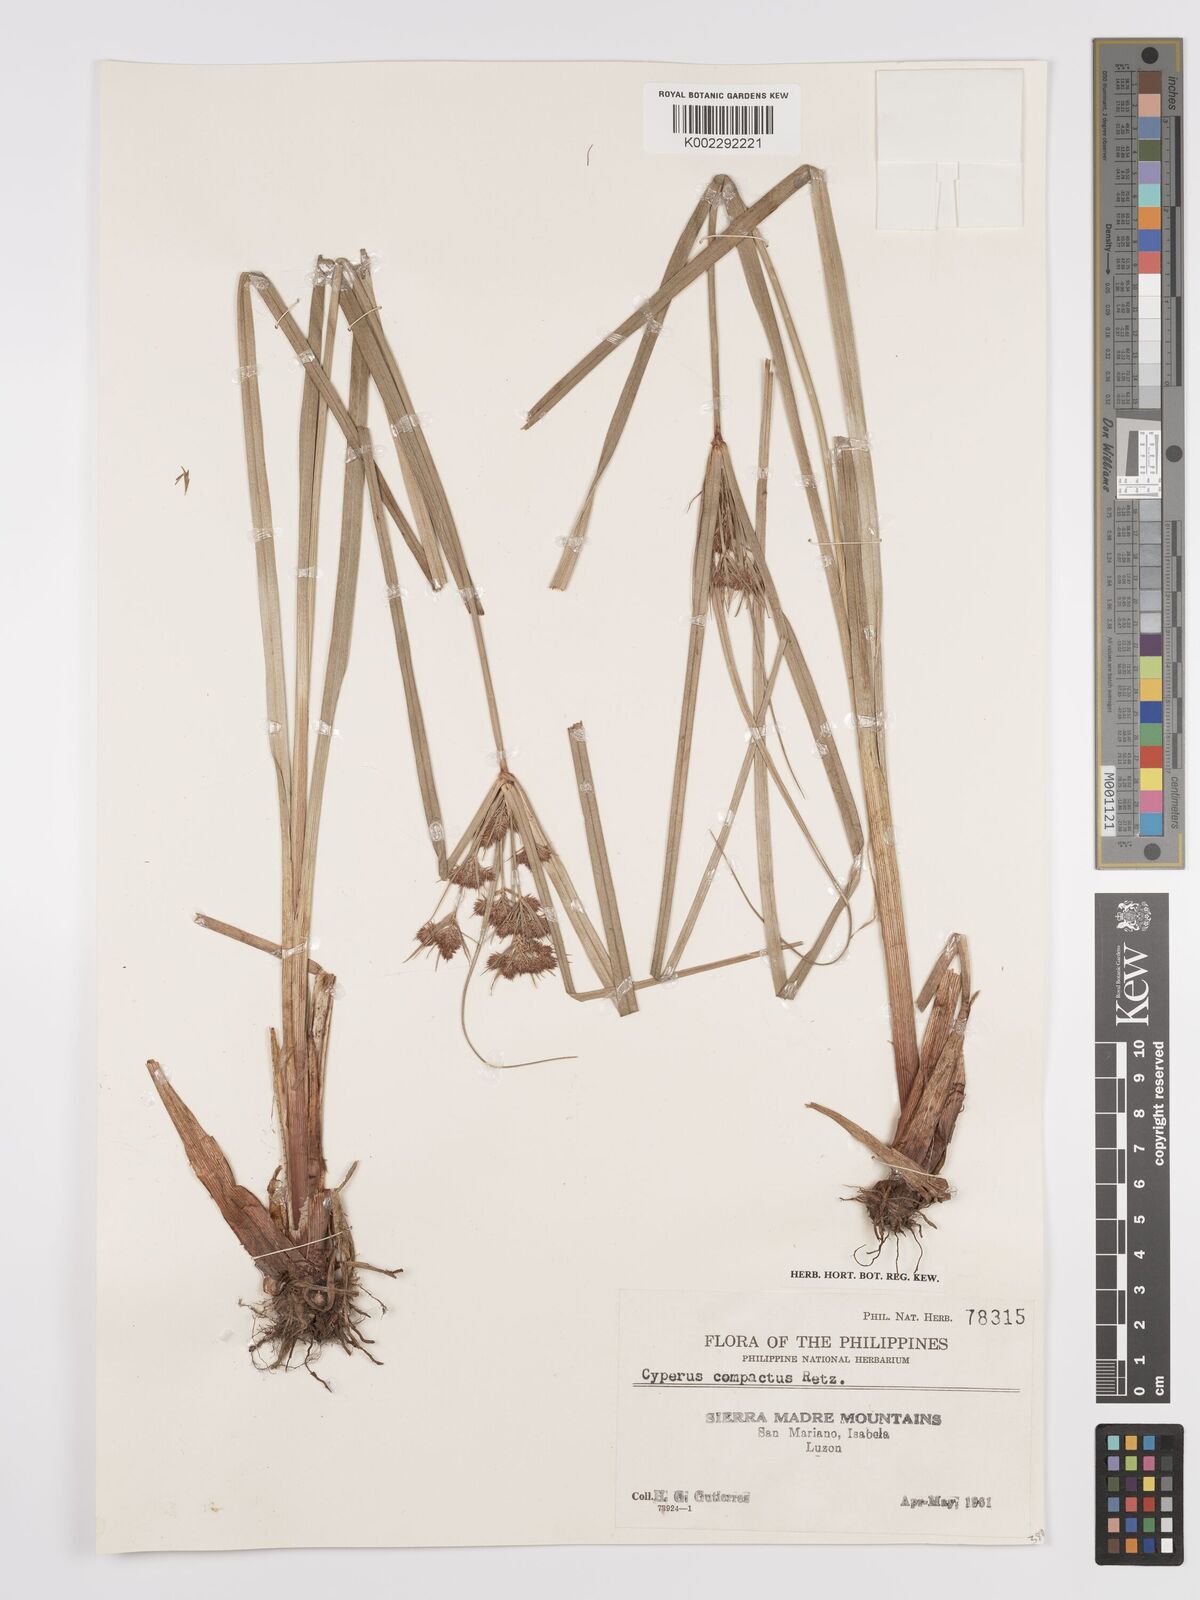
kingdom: Plantae
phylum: Tracheophyta
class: Liliopsida
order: Poales
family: Cyperaceae
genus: Cyperus
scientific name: Cyperus compactus
